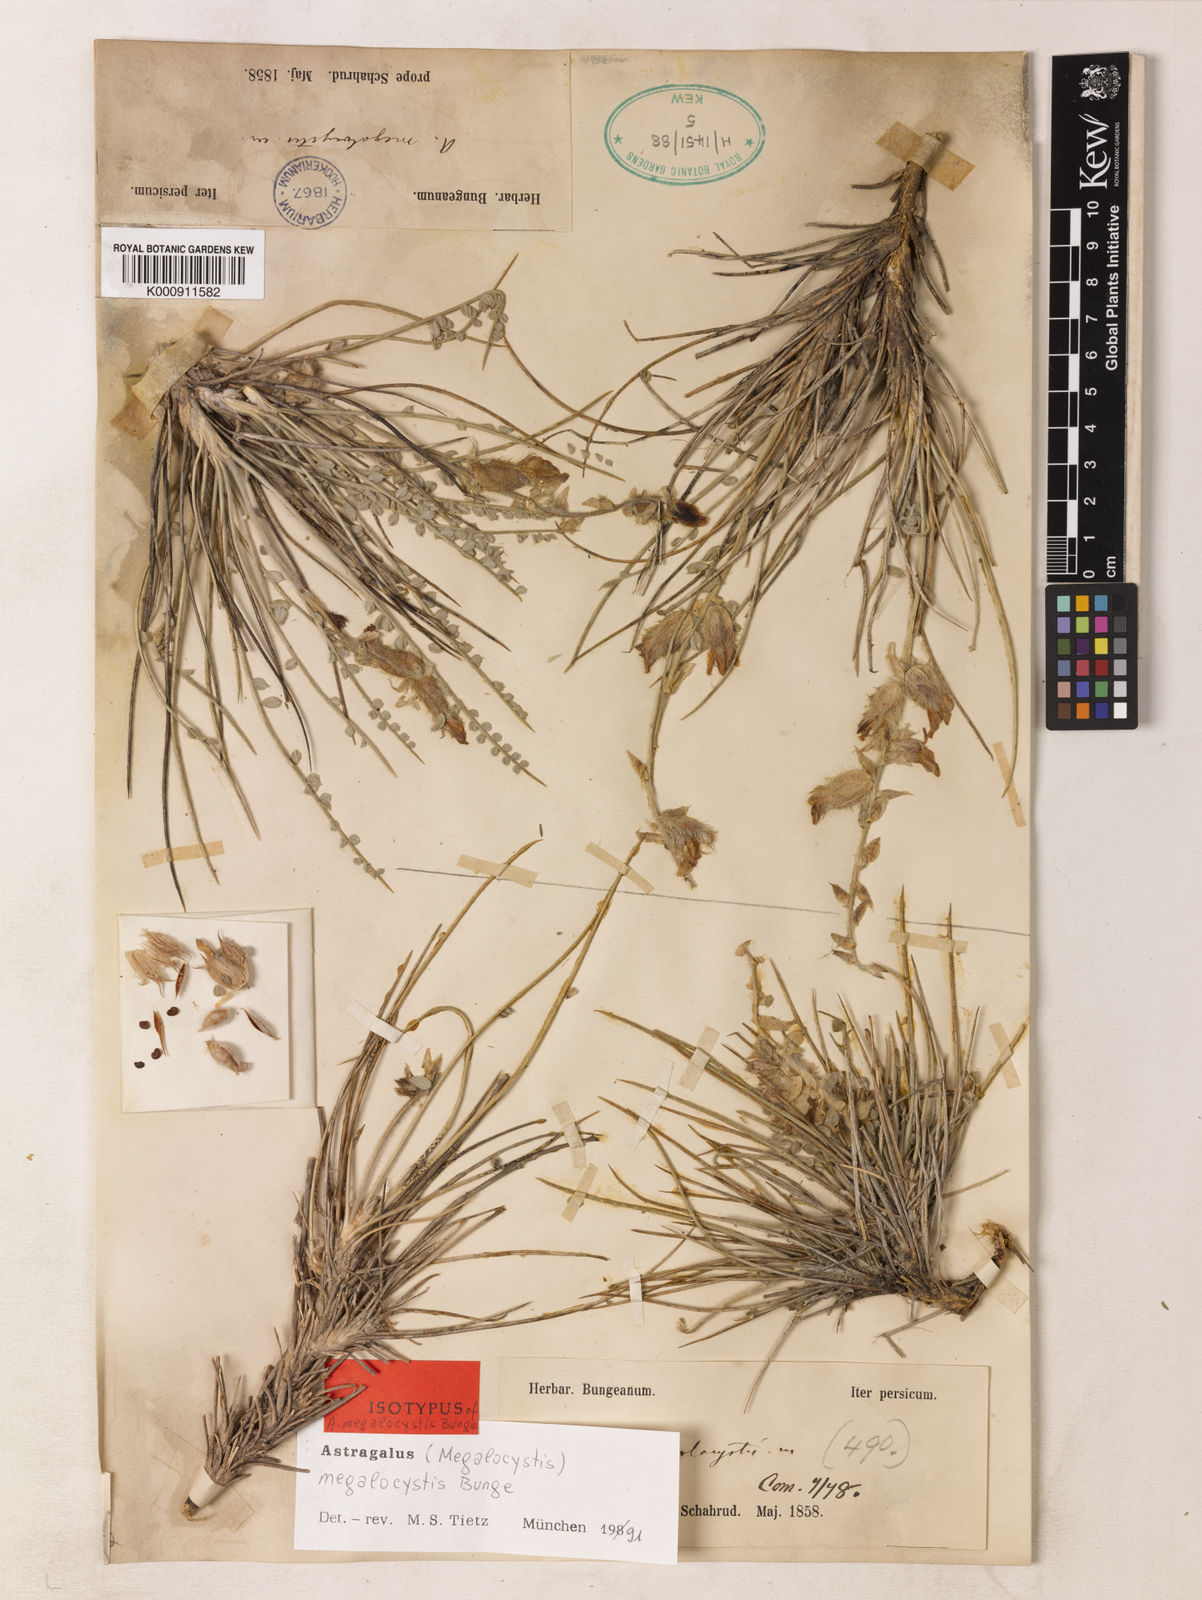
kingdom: Plantae
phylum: Tracheophyta
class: Magnoliopsida
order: Fabales
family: Fabaceae
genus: Astragalus
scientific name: Astragalus megalocystis
